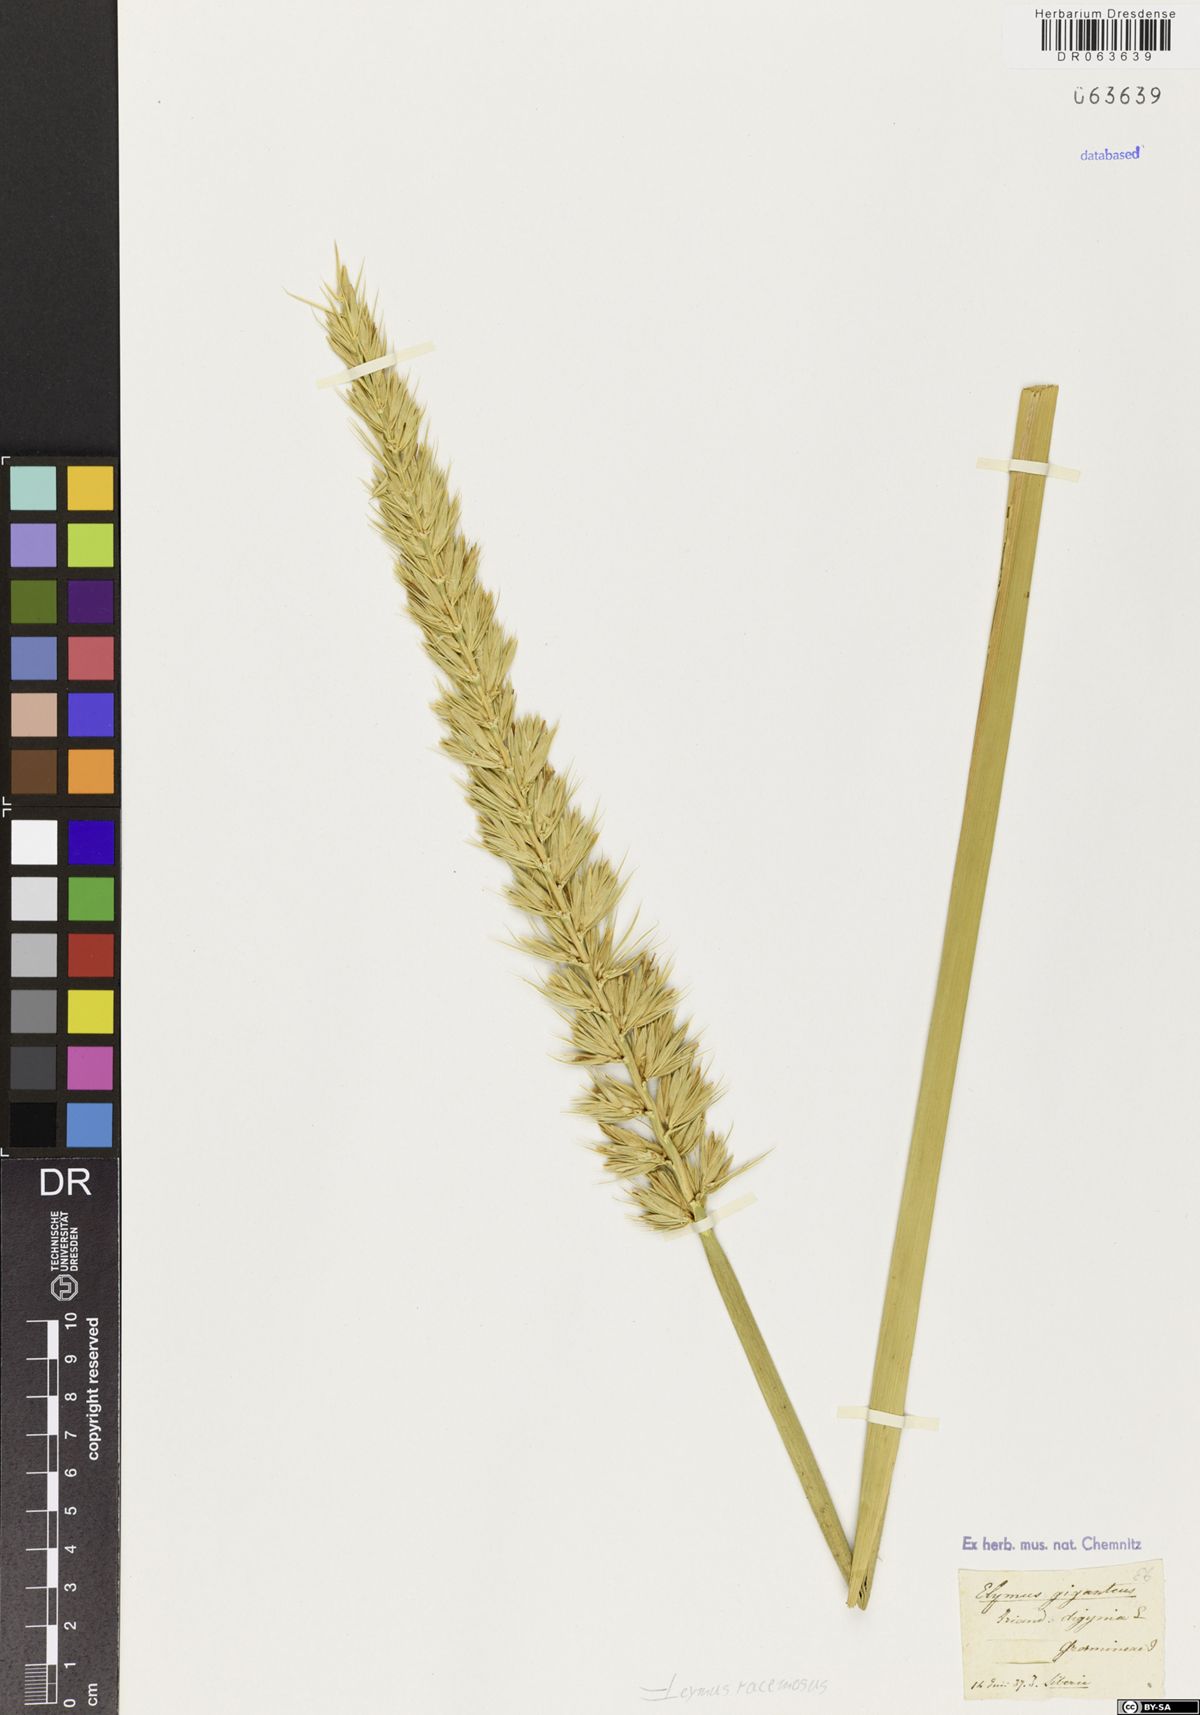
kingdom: Plantae
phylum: Tracheophyta
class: Liliopsida
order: Poales
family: Poaceae
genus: Leymus
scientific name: Leymus racemosus
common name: Mammoth wildrye
